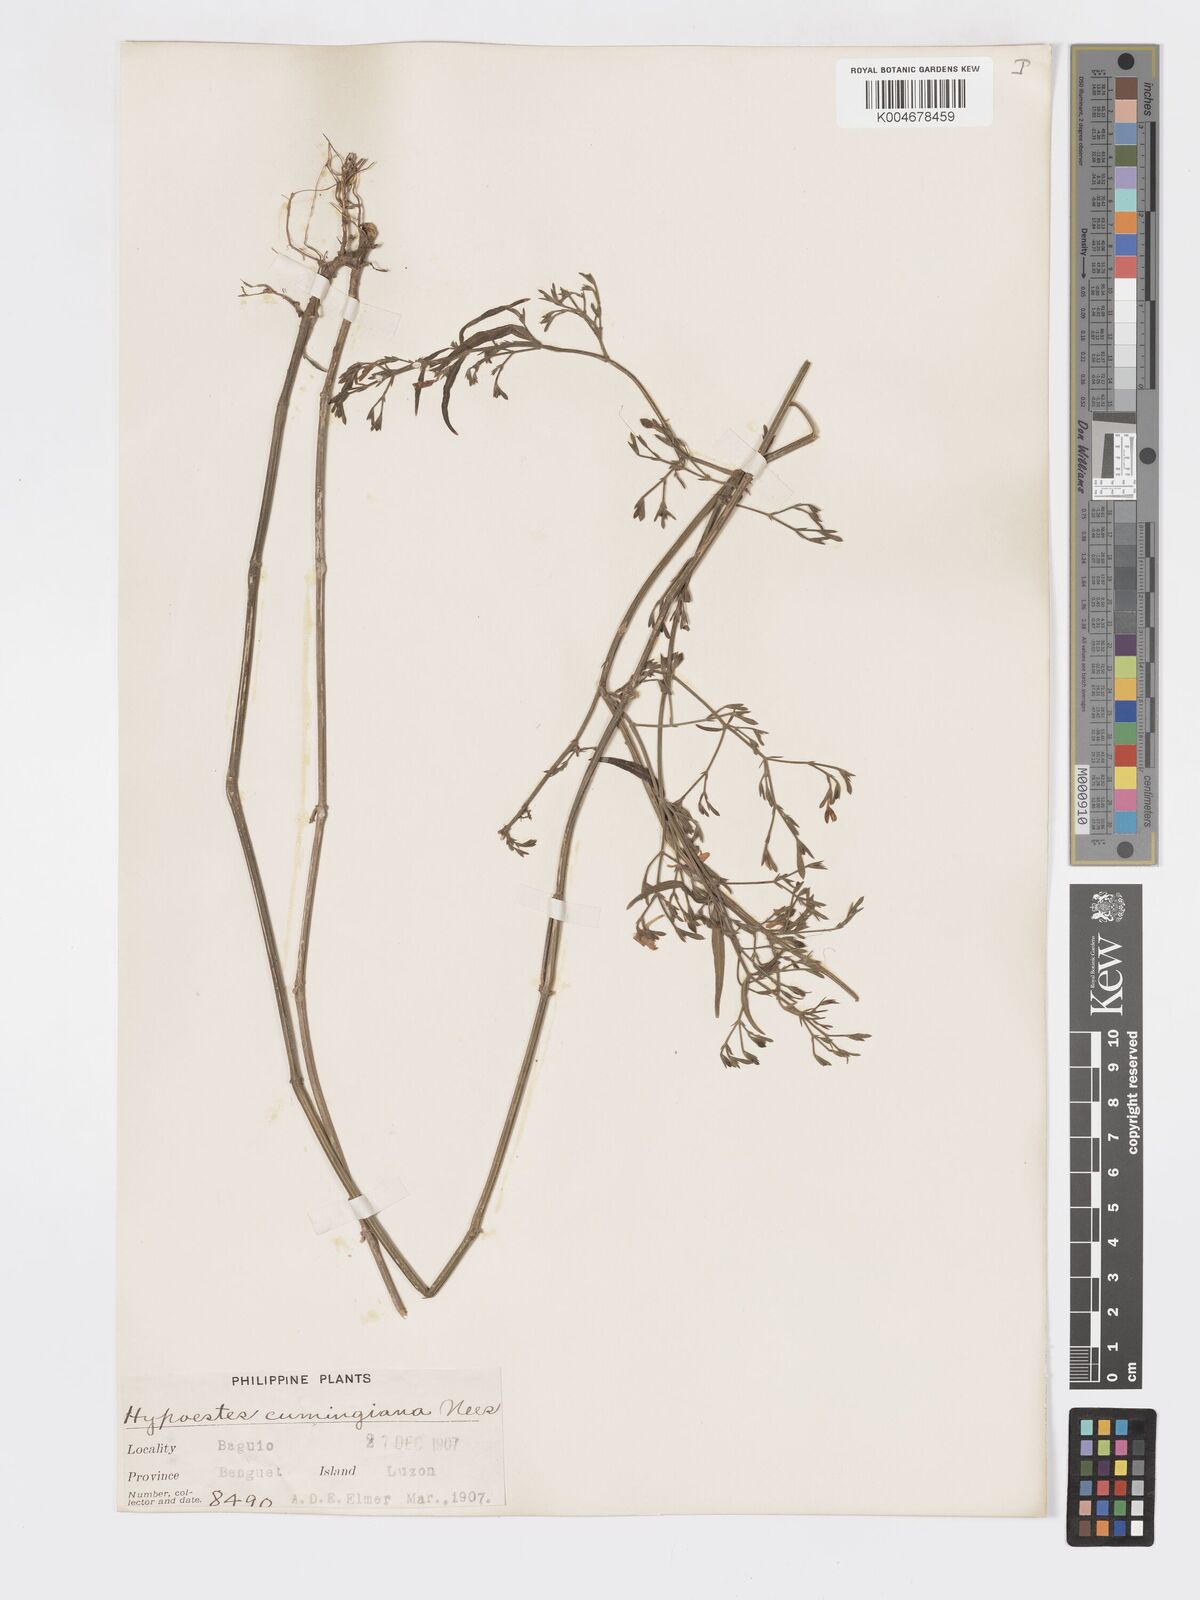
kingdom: Plantae
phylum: Tracheophyta
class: Magnoliopsida
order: Lamiales
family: Acanthaceae
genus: Hypoestes
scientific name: Hypoestes cumingiana
